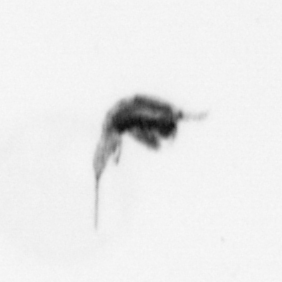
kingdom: Animalia
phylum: Arthropoda
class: Copepoda
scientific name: Copepoda
